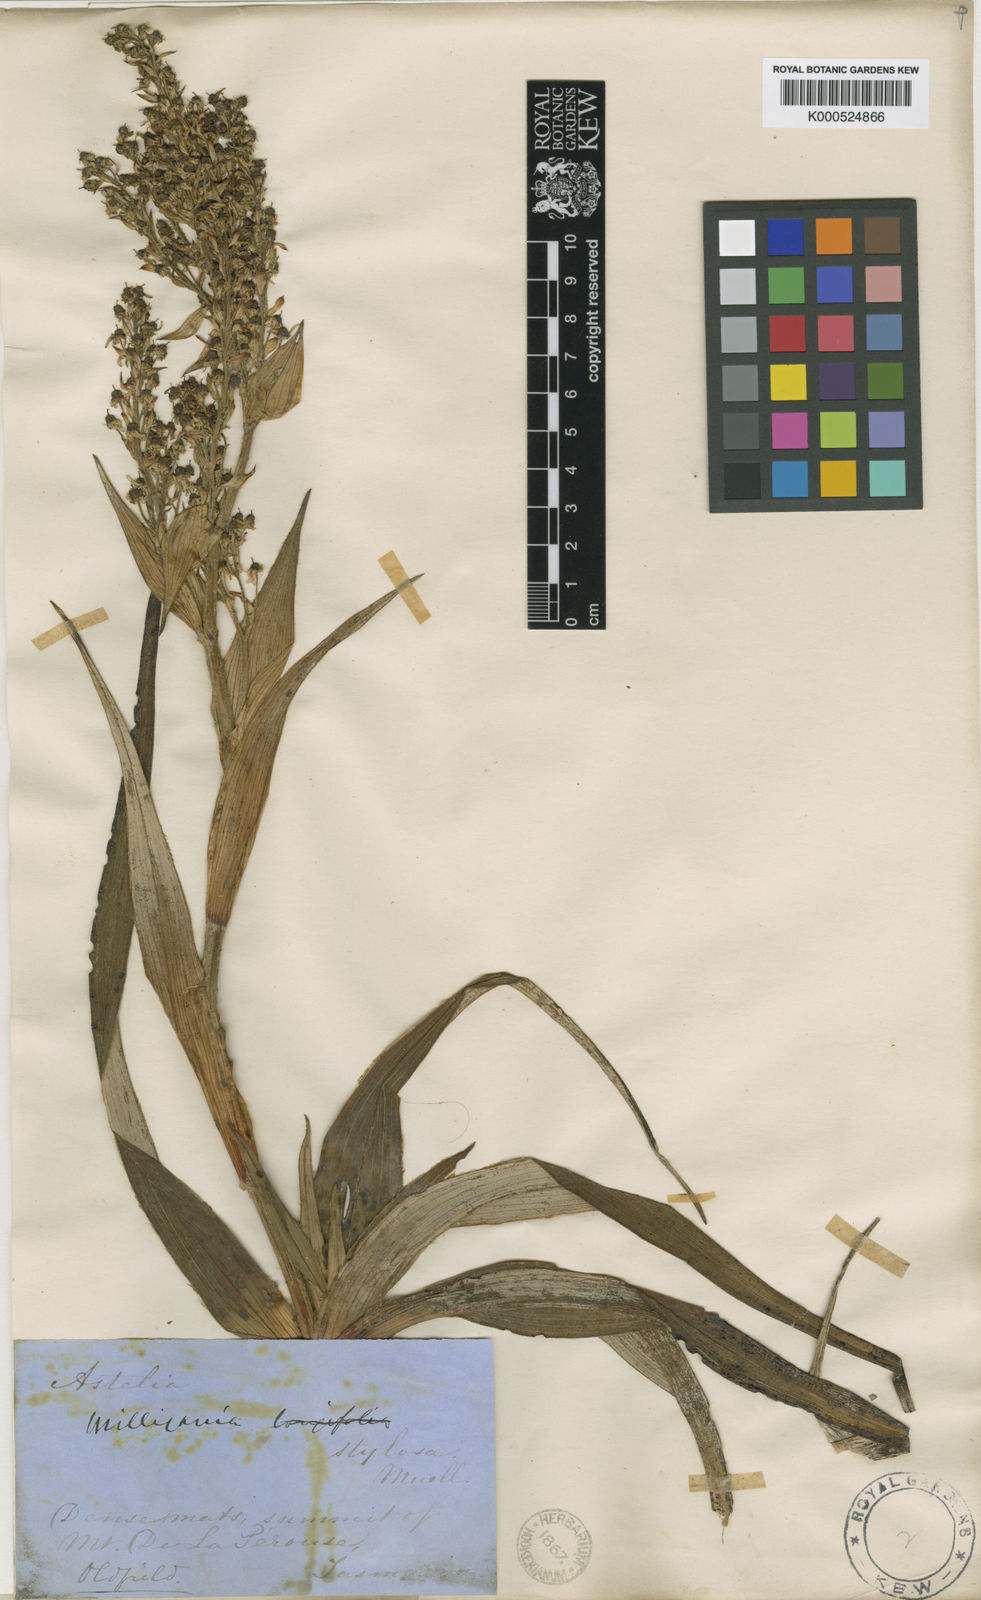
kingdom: Plantae
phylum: Tracheophyta
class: Liliopsida
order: Asparagales
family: Asteliaceae
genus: Milligania
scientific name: Milligania stylosa
